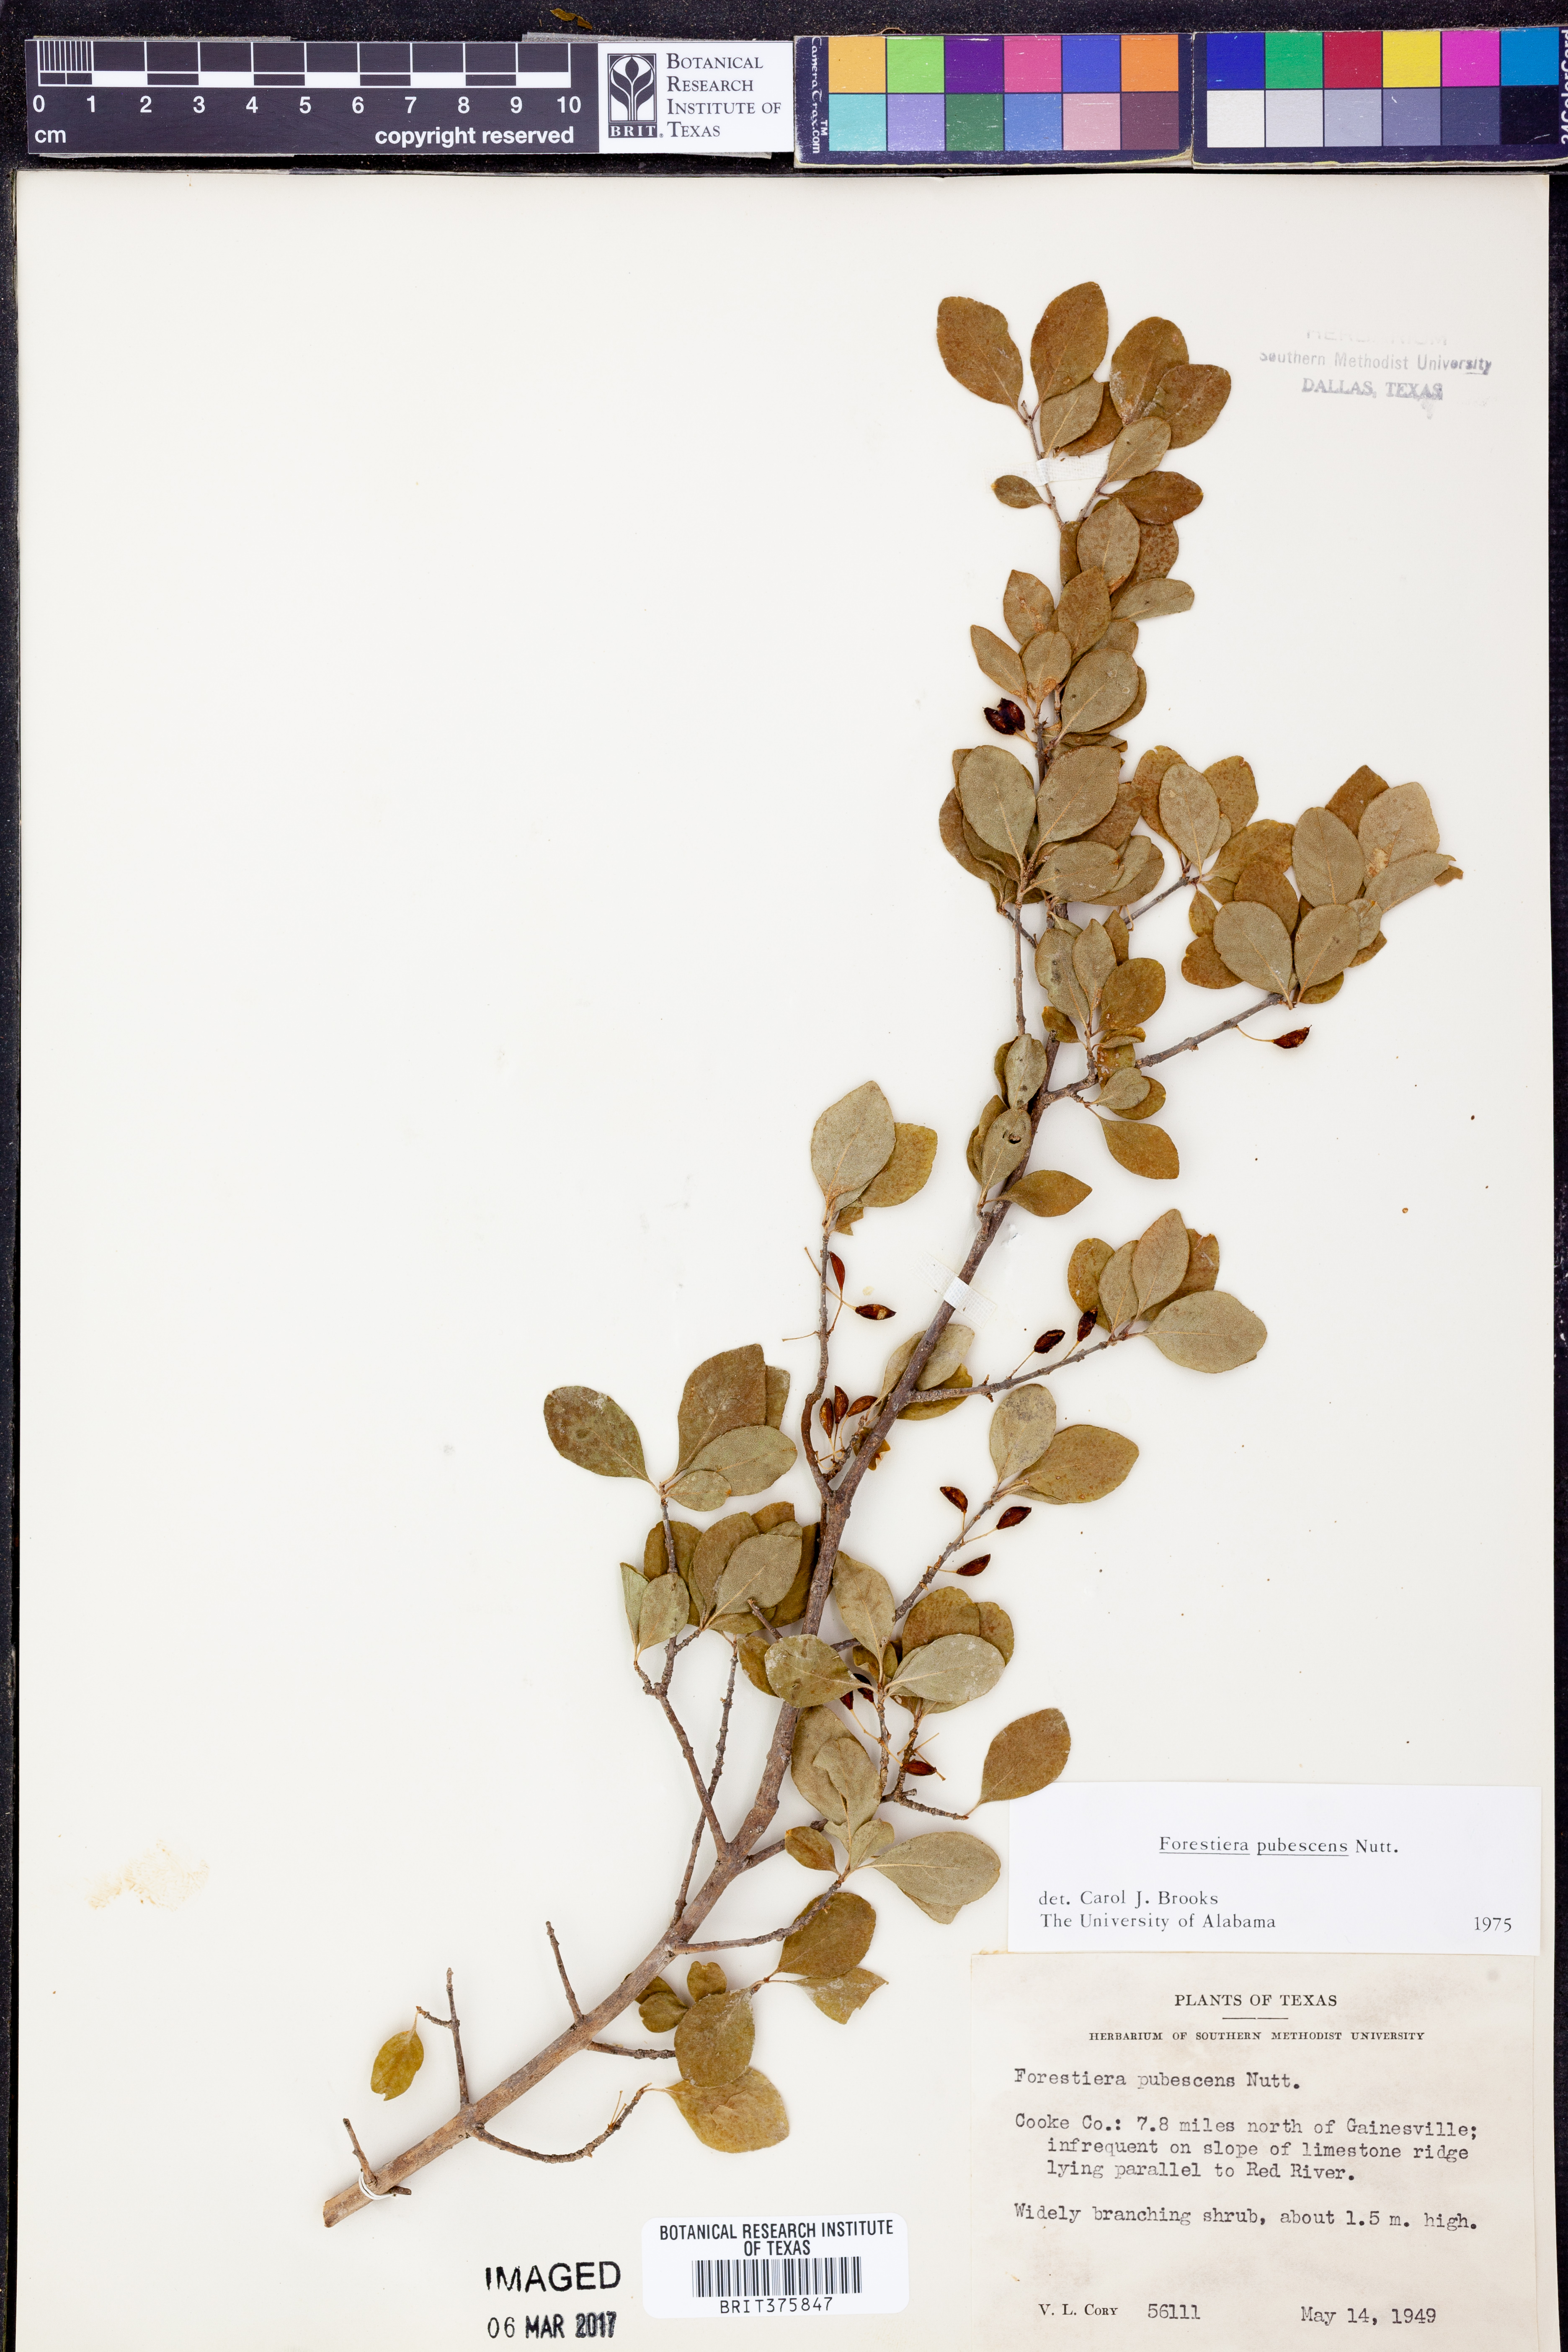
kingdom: Plantae
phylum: Tracheophyta
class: Magnoliopsida
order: Lamiales
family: Oleaceae
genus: Forestiera
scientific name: Forestiera pubescens
